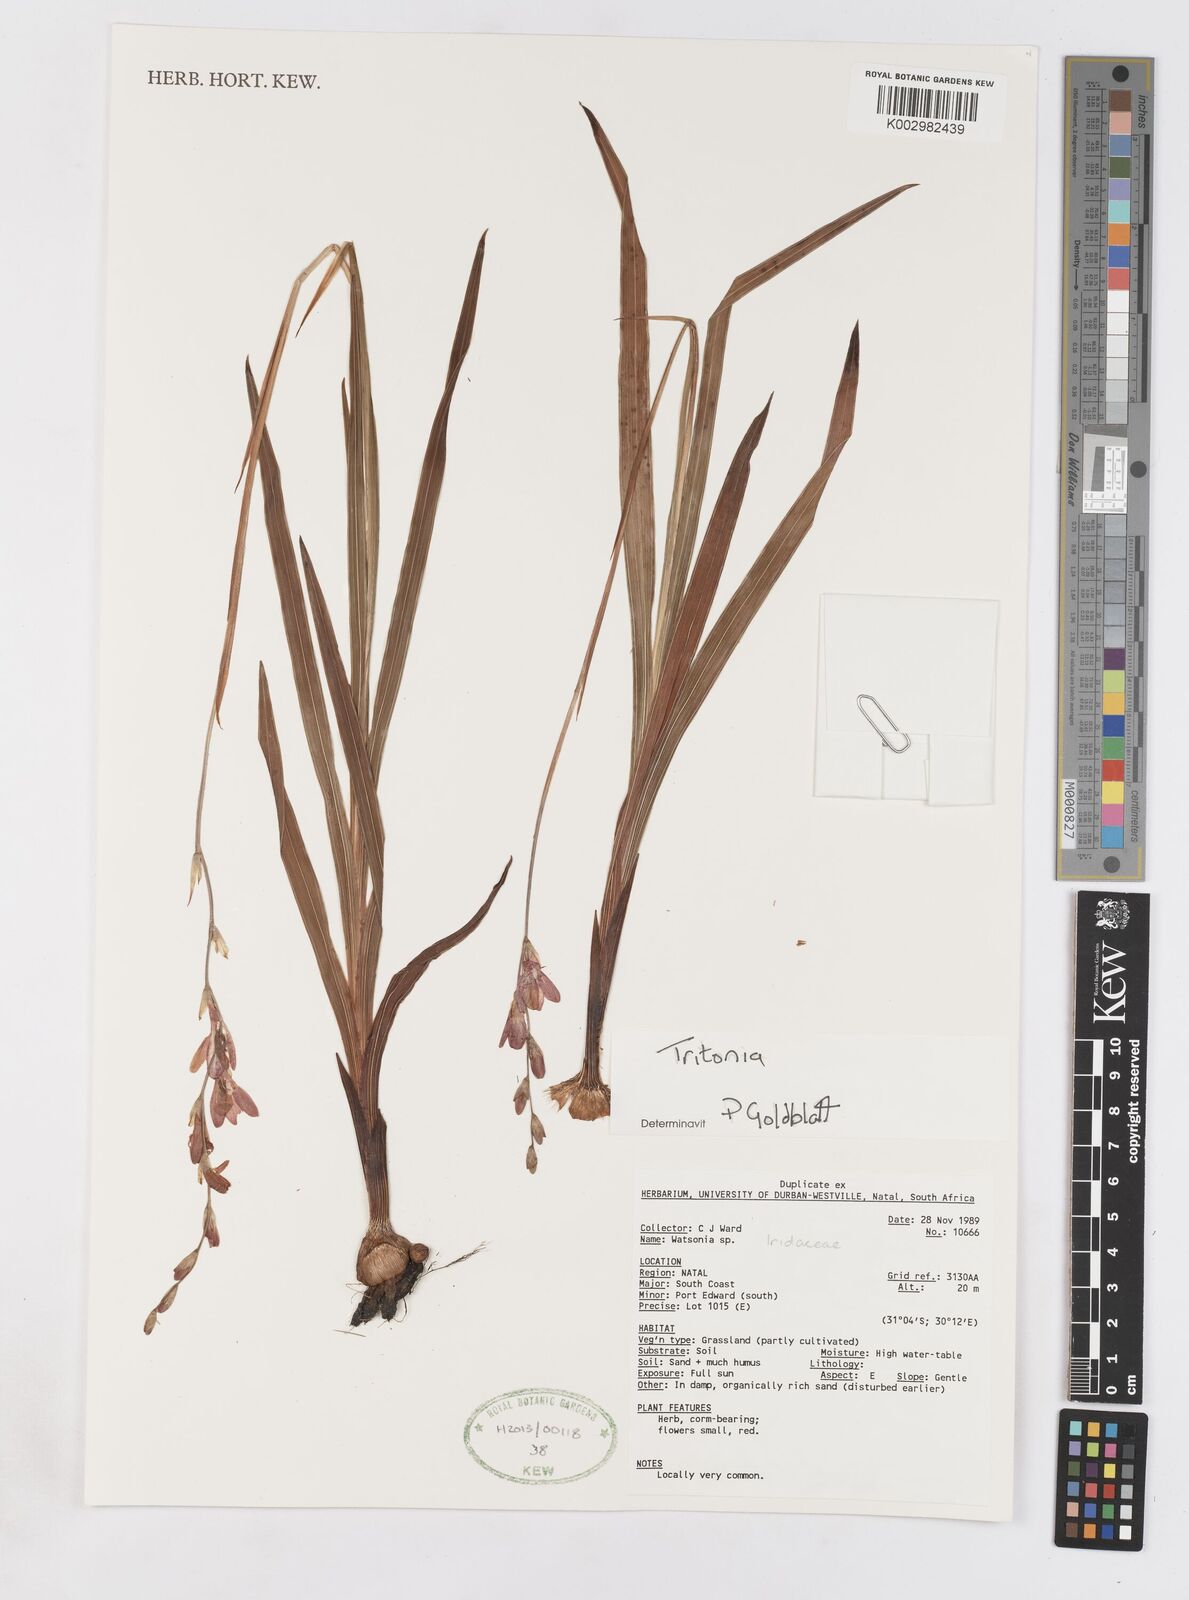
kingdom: Plantae
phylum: Tracheophyta
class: Liliopsida
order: Asparagales
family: Iridaceae
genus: Tritonia
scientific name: Tritonia
